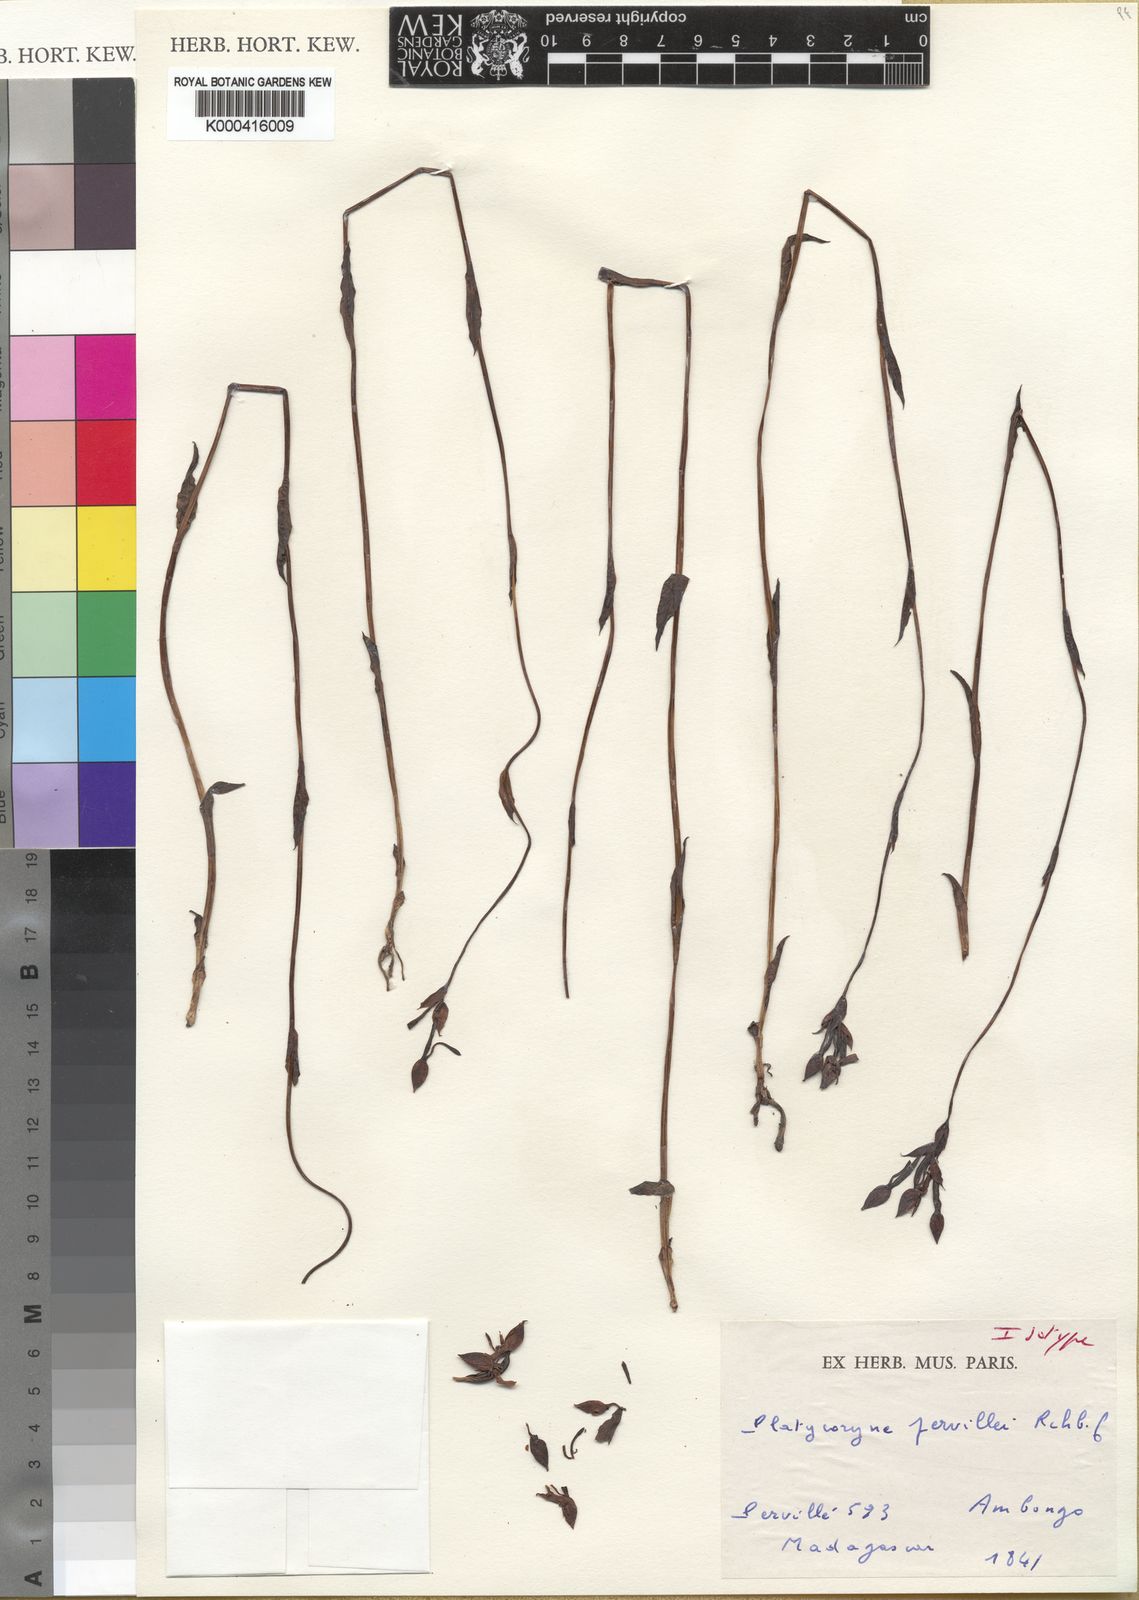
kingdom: Plantae
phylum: Tracheophyta
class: Liliopsida
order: Asparagales
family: Orchidaceae
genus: Platycoryne
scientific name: Platycoryne pervillei
